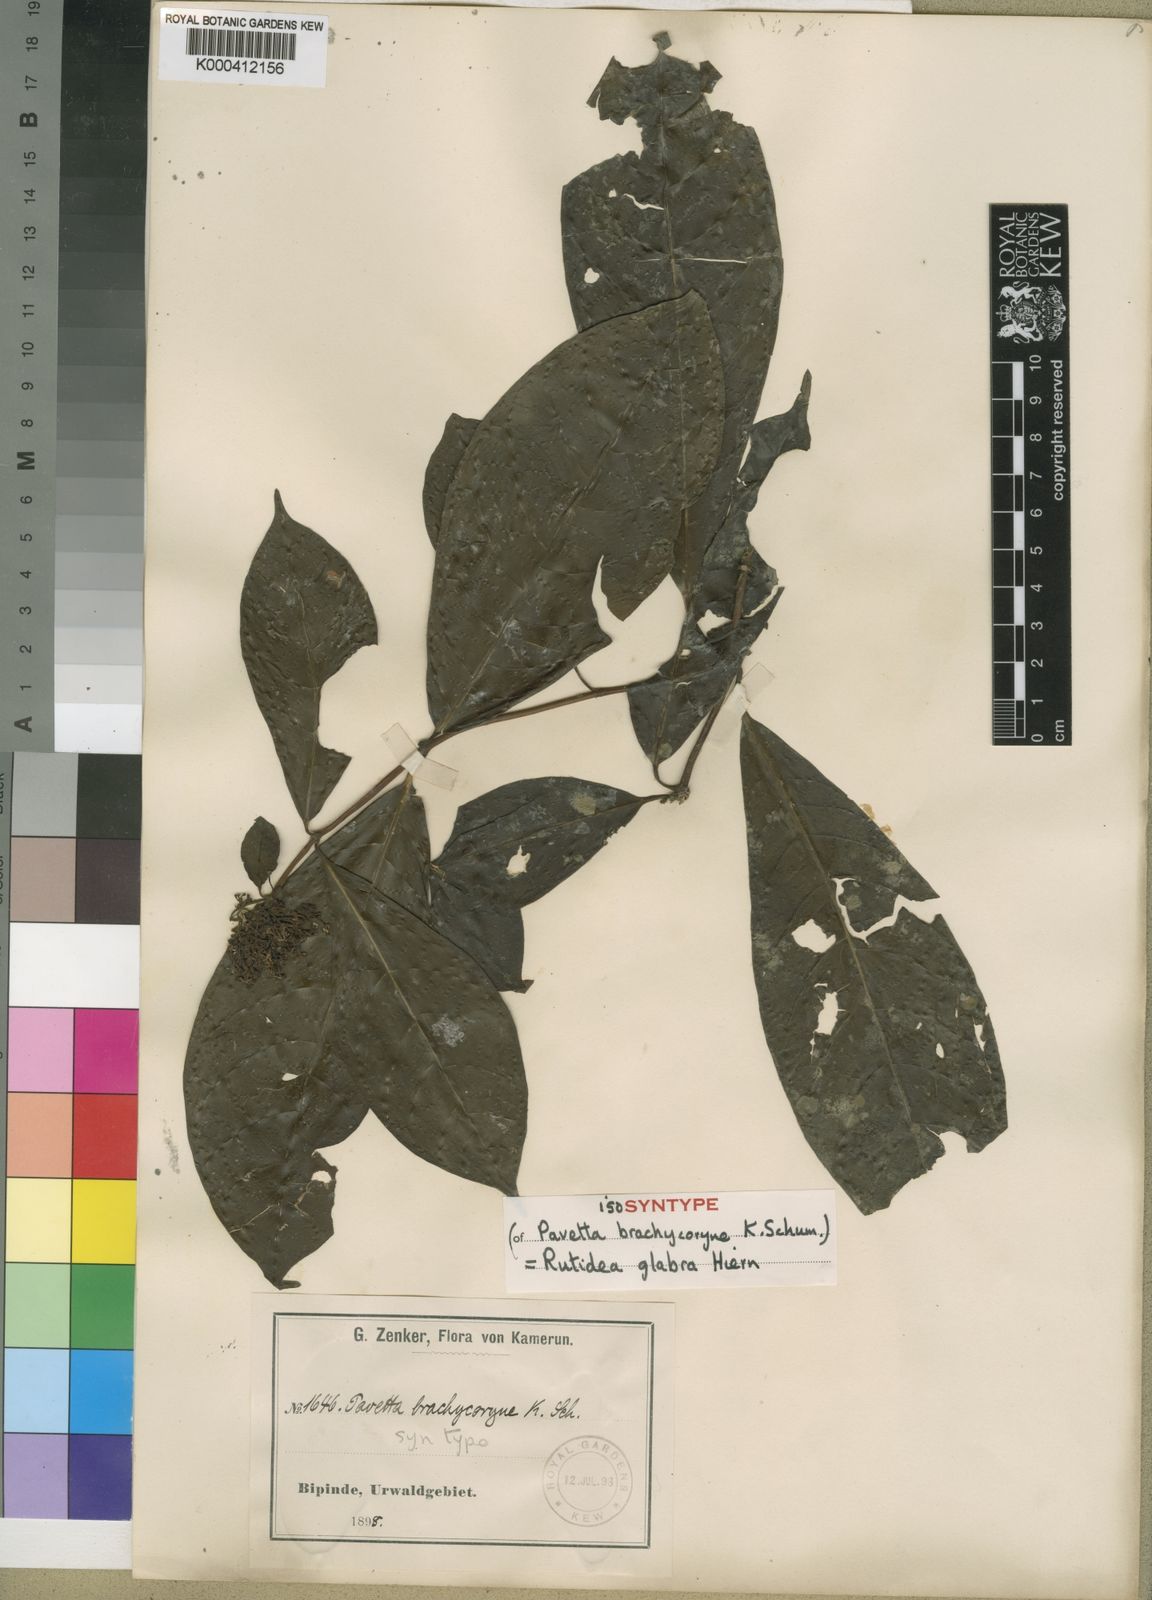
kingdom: Plantae
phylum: Tracheophyta
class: Magnoliopsida
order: Gentianales
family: Rubiaceae
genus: Rutidea
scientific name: Rutidea glabra
